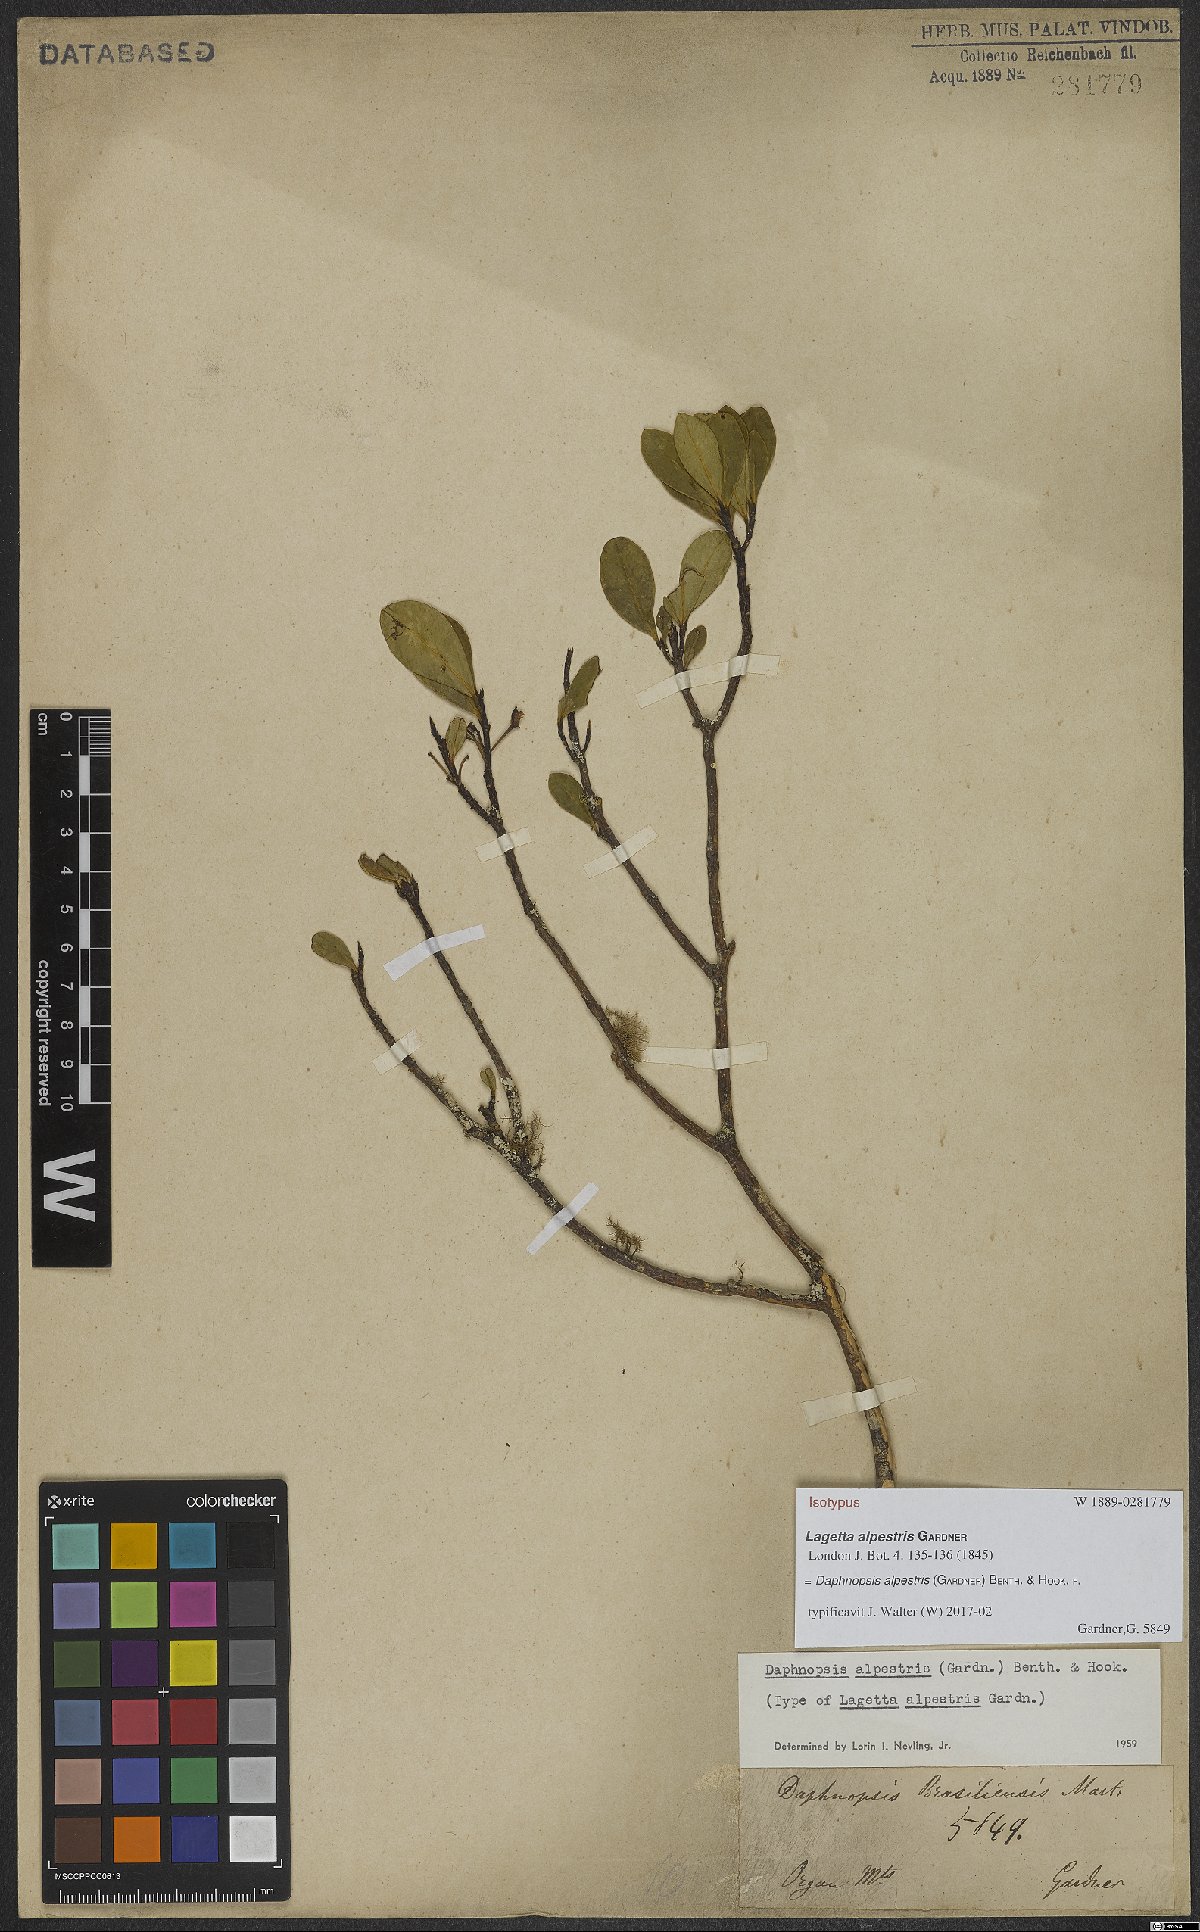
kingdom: Plantae
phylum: Tracheophyta
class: Magnoliopsida
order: Malvales
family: Thymelaeaceae
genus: Daphnopsis
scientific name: Daphnopsis alpestris
